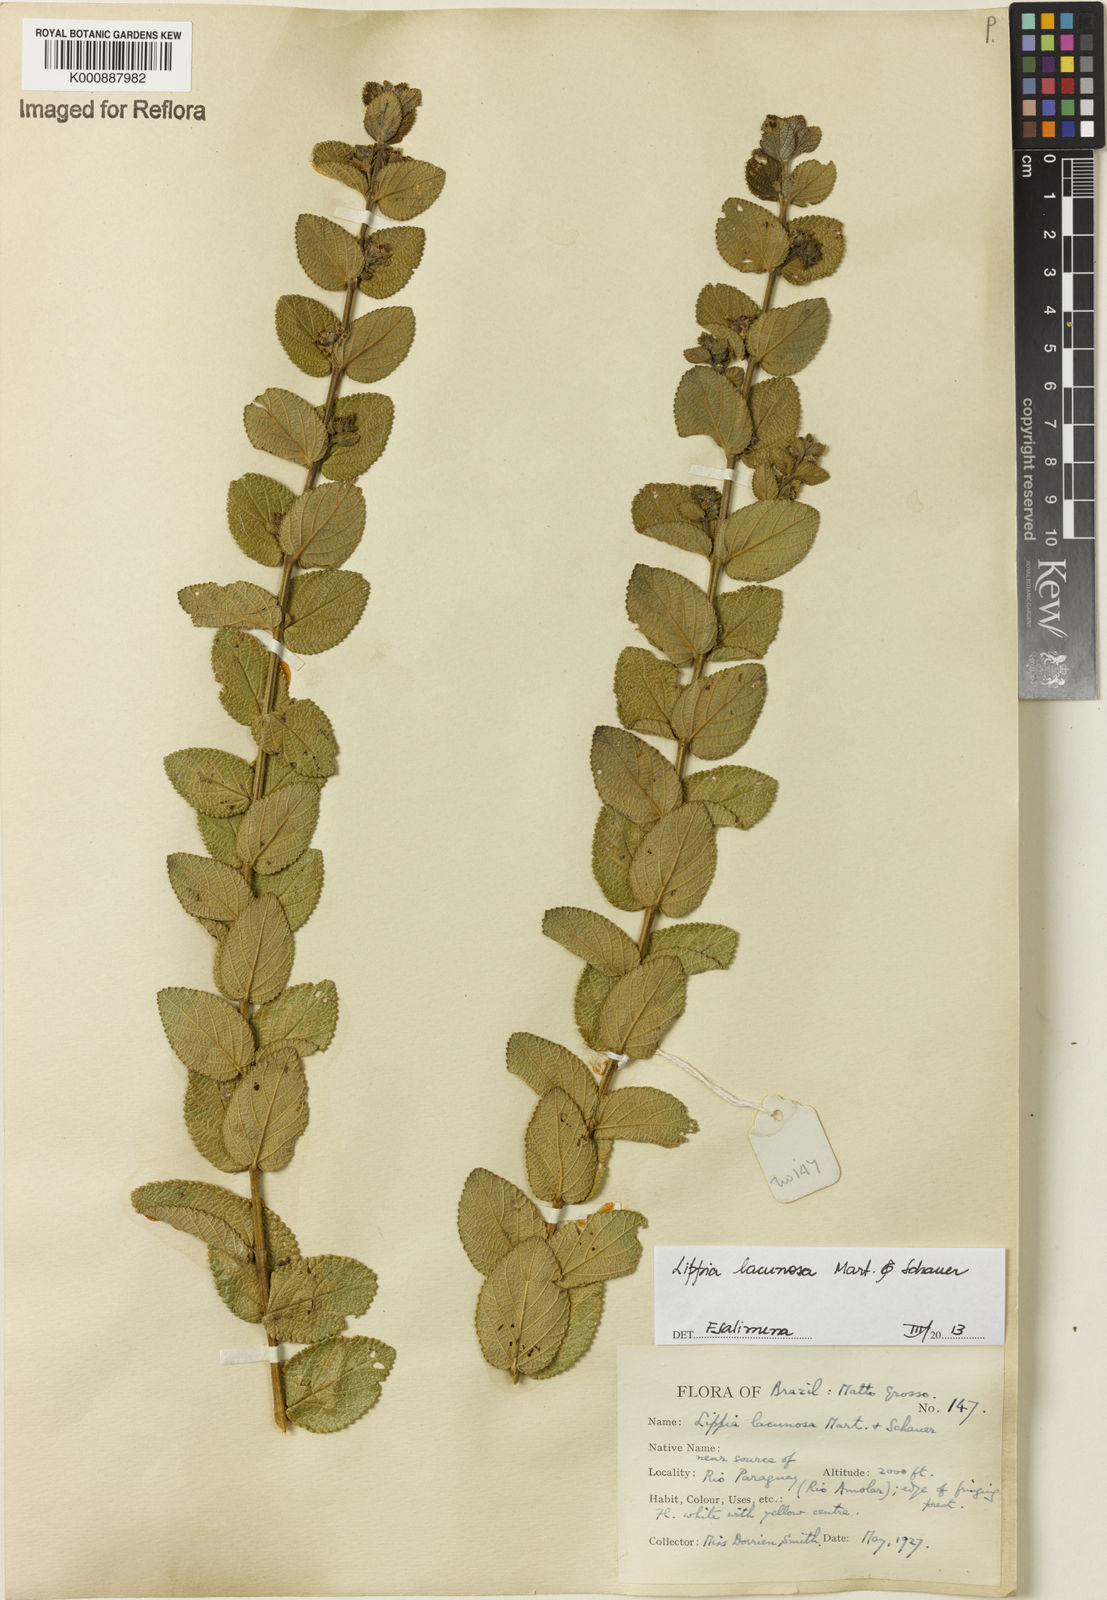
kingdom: Plantae
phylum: Tracheophyta
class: Magnoliopsida
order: Lamiales
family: Verbenaceae
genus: Lippia
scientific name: Lippia lacunosa
